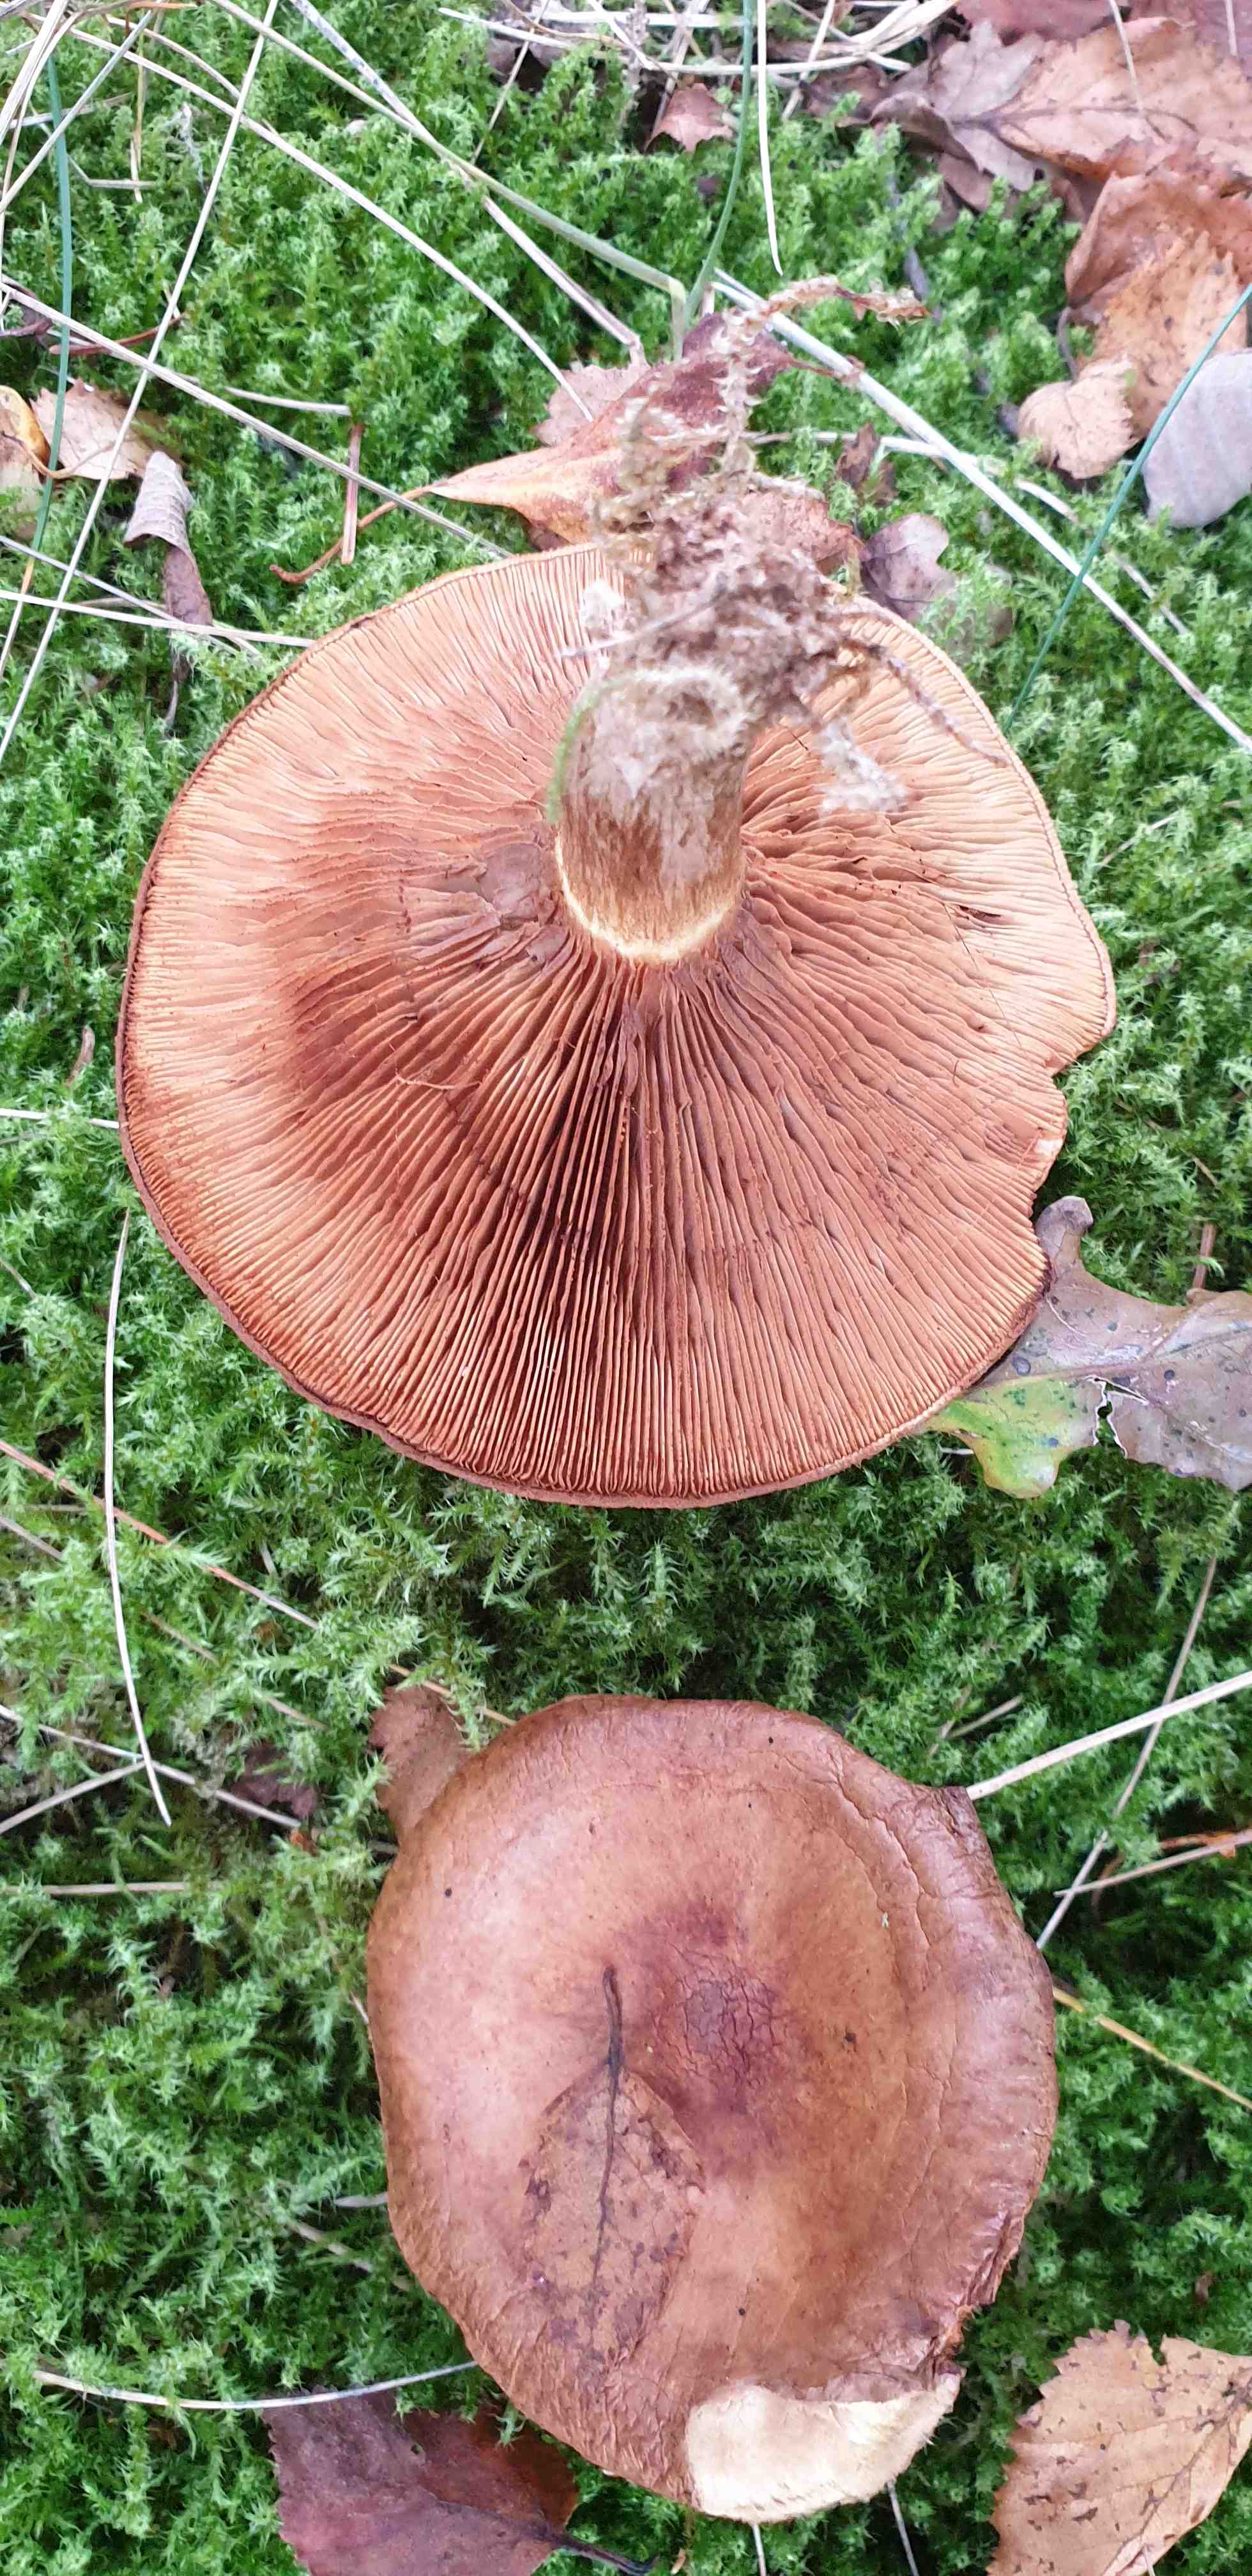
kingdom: Fungi
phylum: Basidiomycota
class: Agaricomycetes
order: Boletales
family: Paxillaceae
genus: Paxillus
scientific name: Paxillus involutus
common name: almindelig netbladhat
